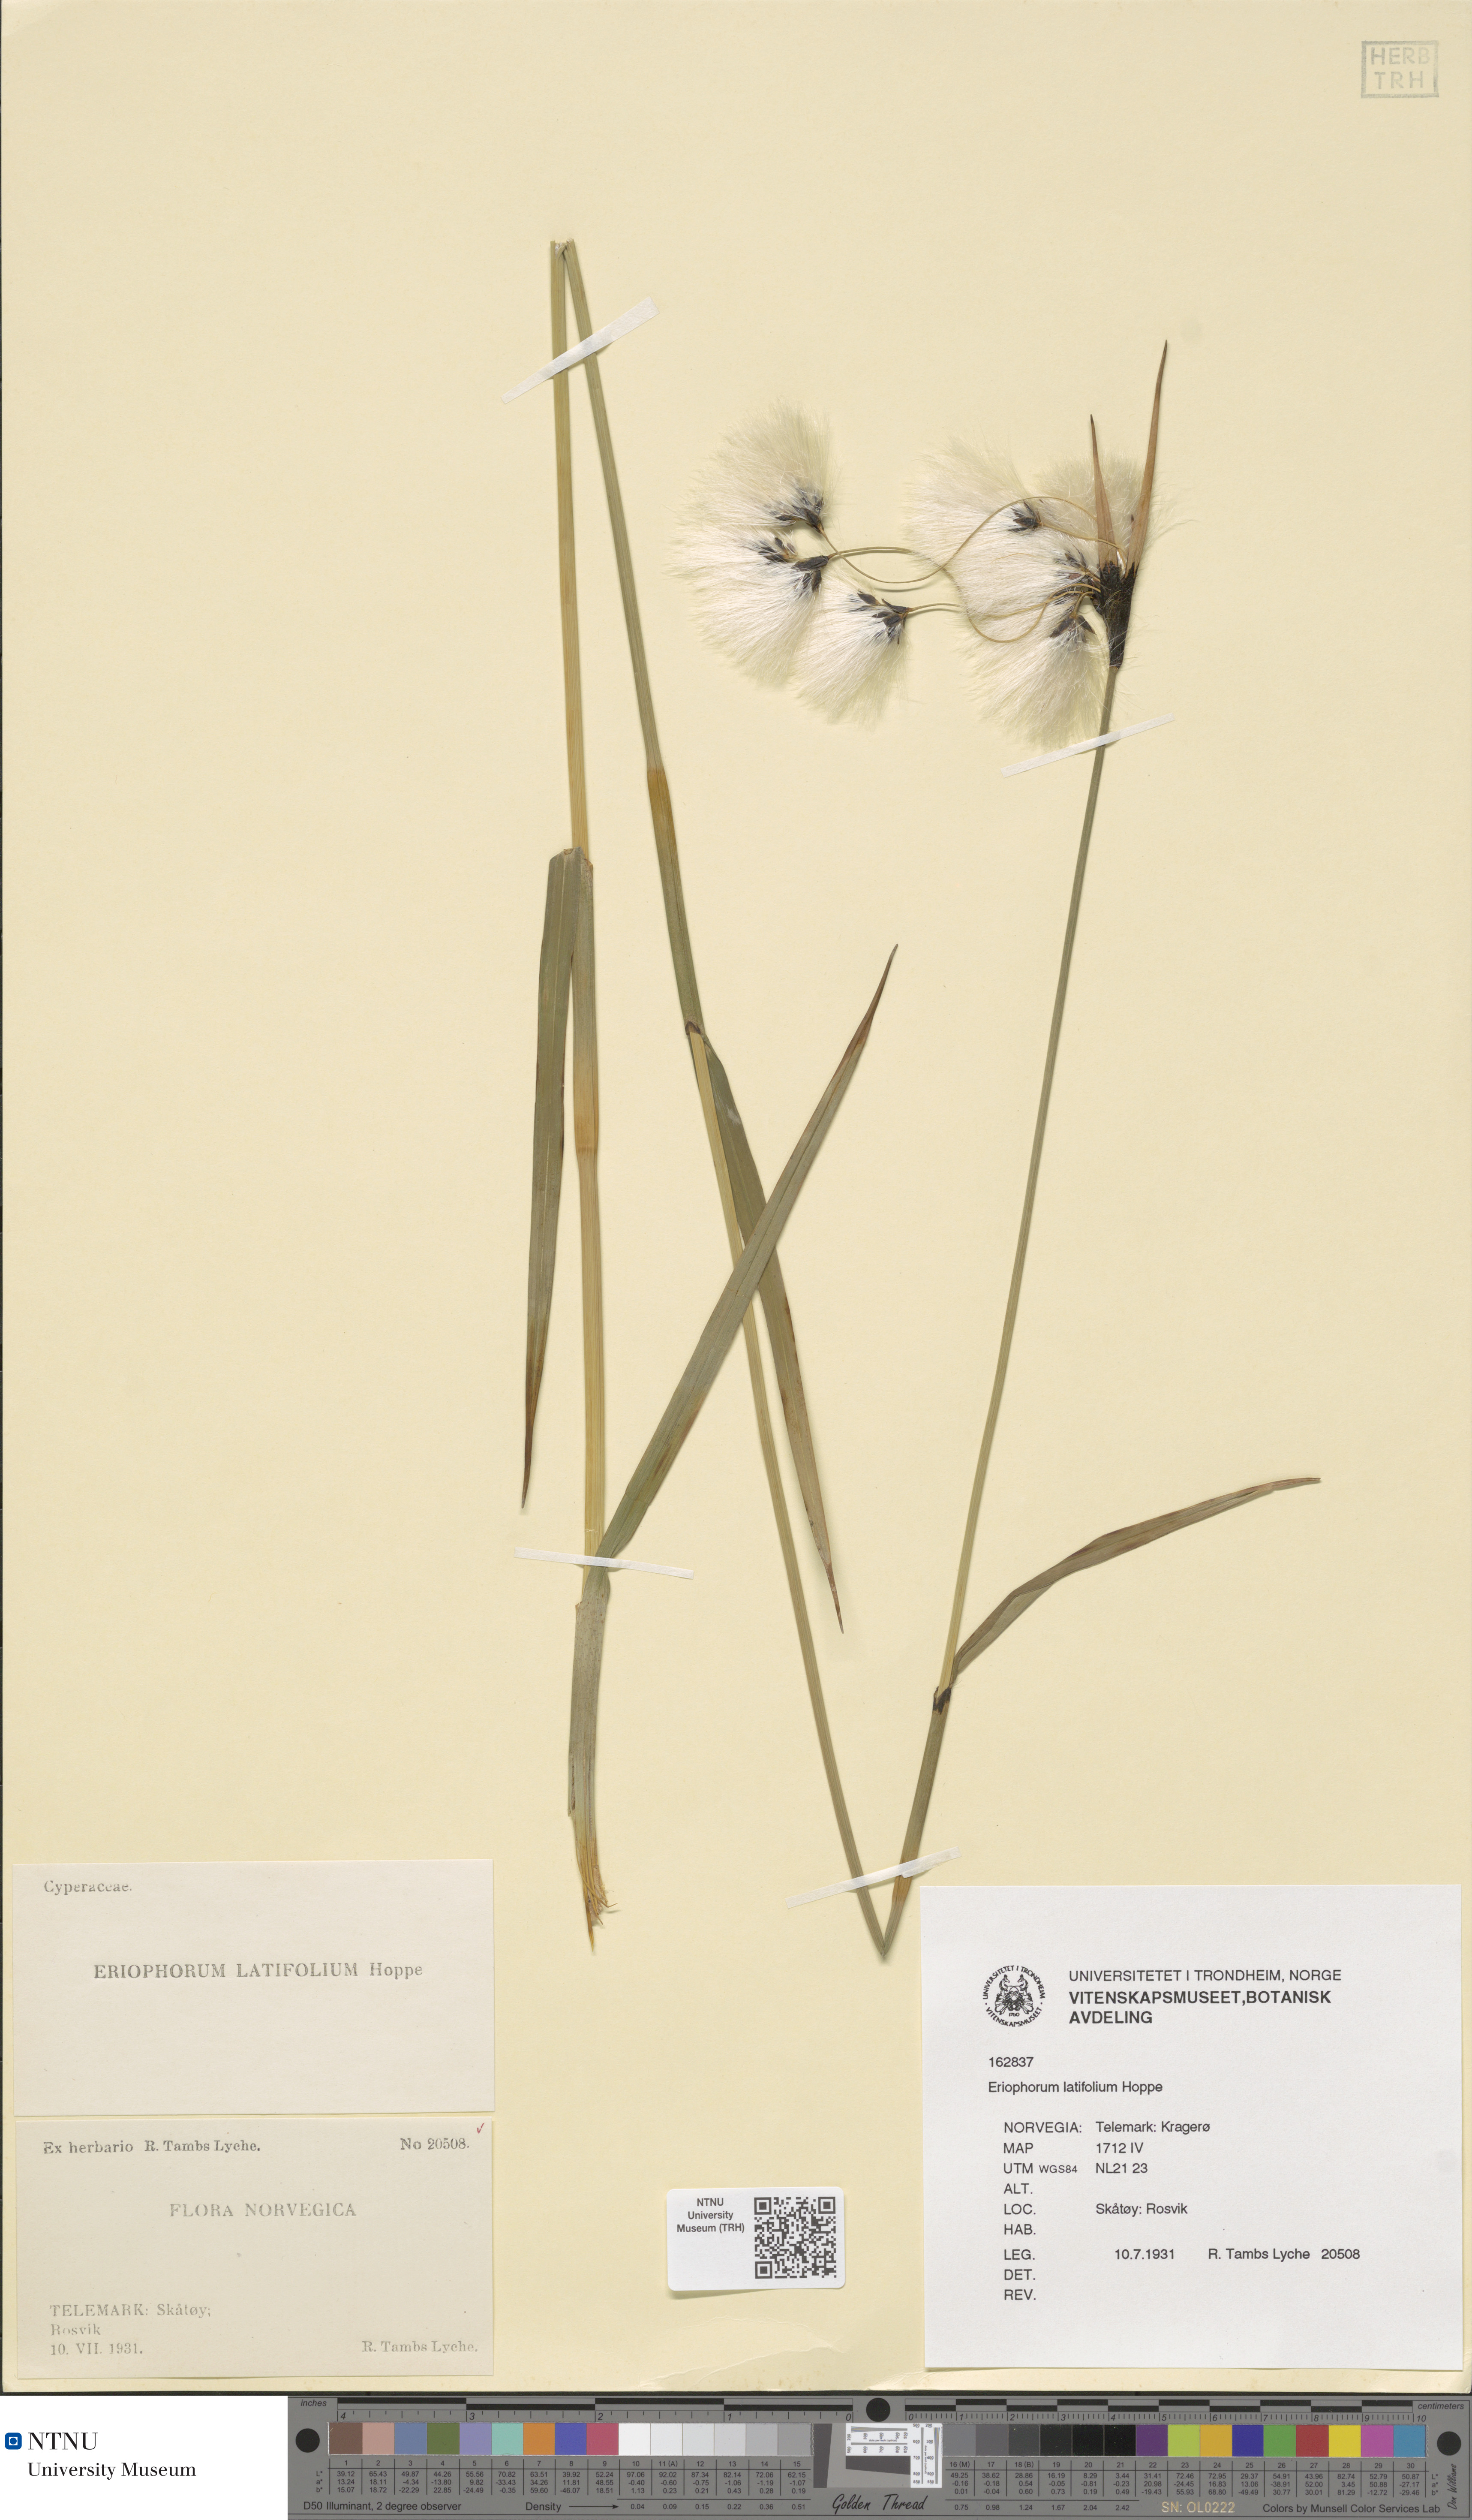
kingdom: Plantae
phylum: Tracheophyta
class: Liliopsida
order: Poales
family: Cyperaceae
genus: Eriophorum
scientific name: Eriophorum latifolium
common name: Broad-leaved cottongrass
